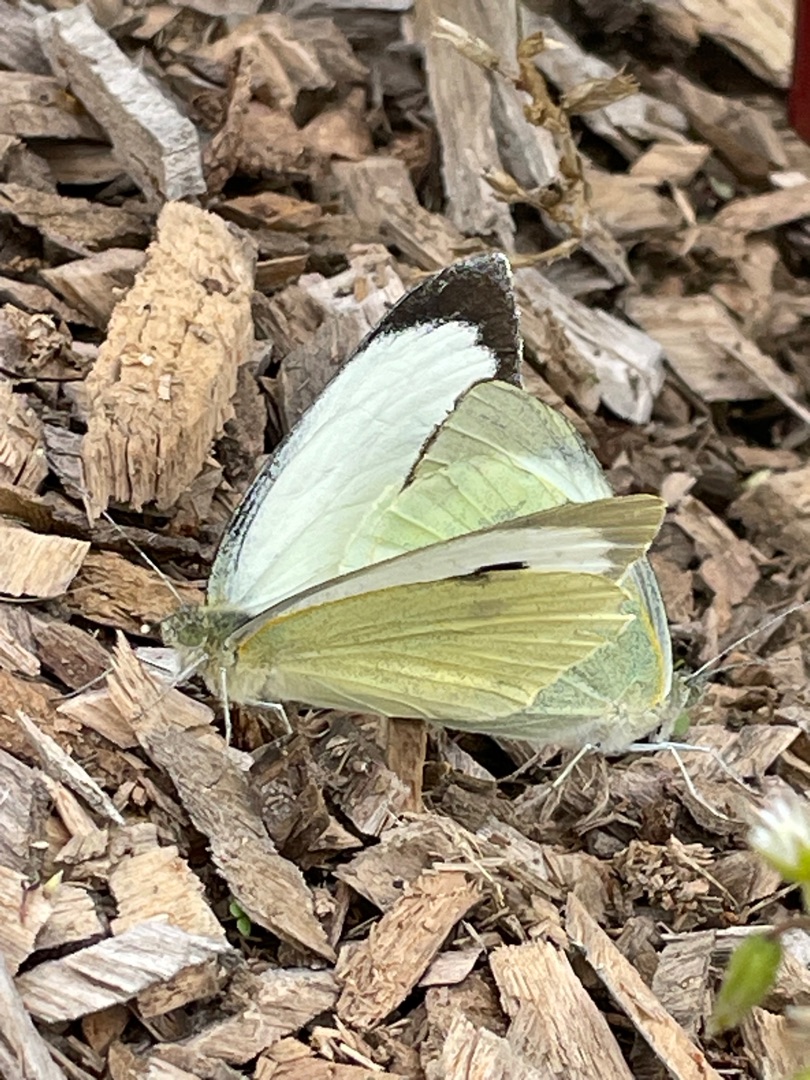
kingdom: Animalia
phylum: Arthropoda
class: Insecta
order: Lepidoptera
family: Pieridae
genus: Pieris
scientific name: Pieris brassicae
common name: Stor kålsommerfugl
